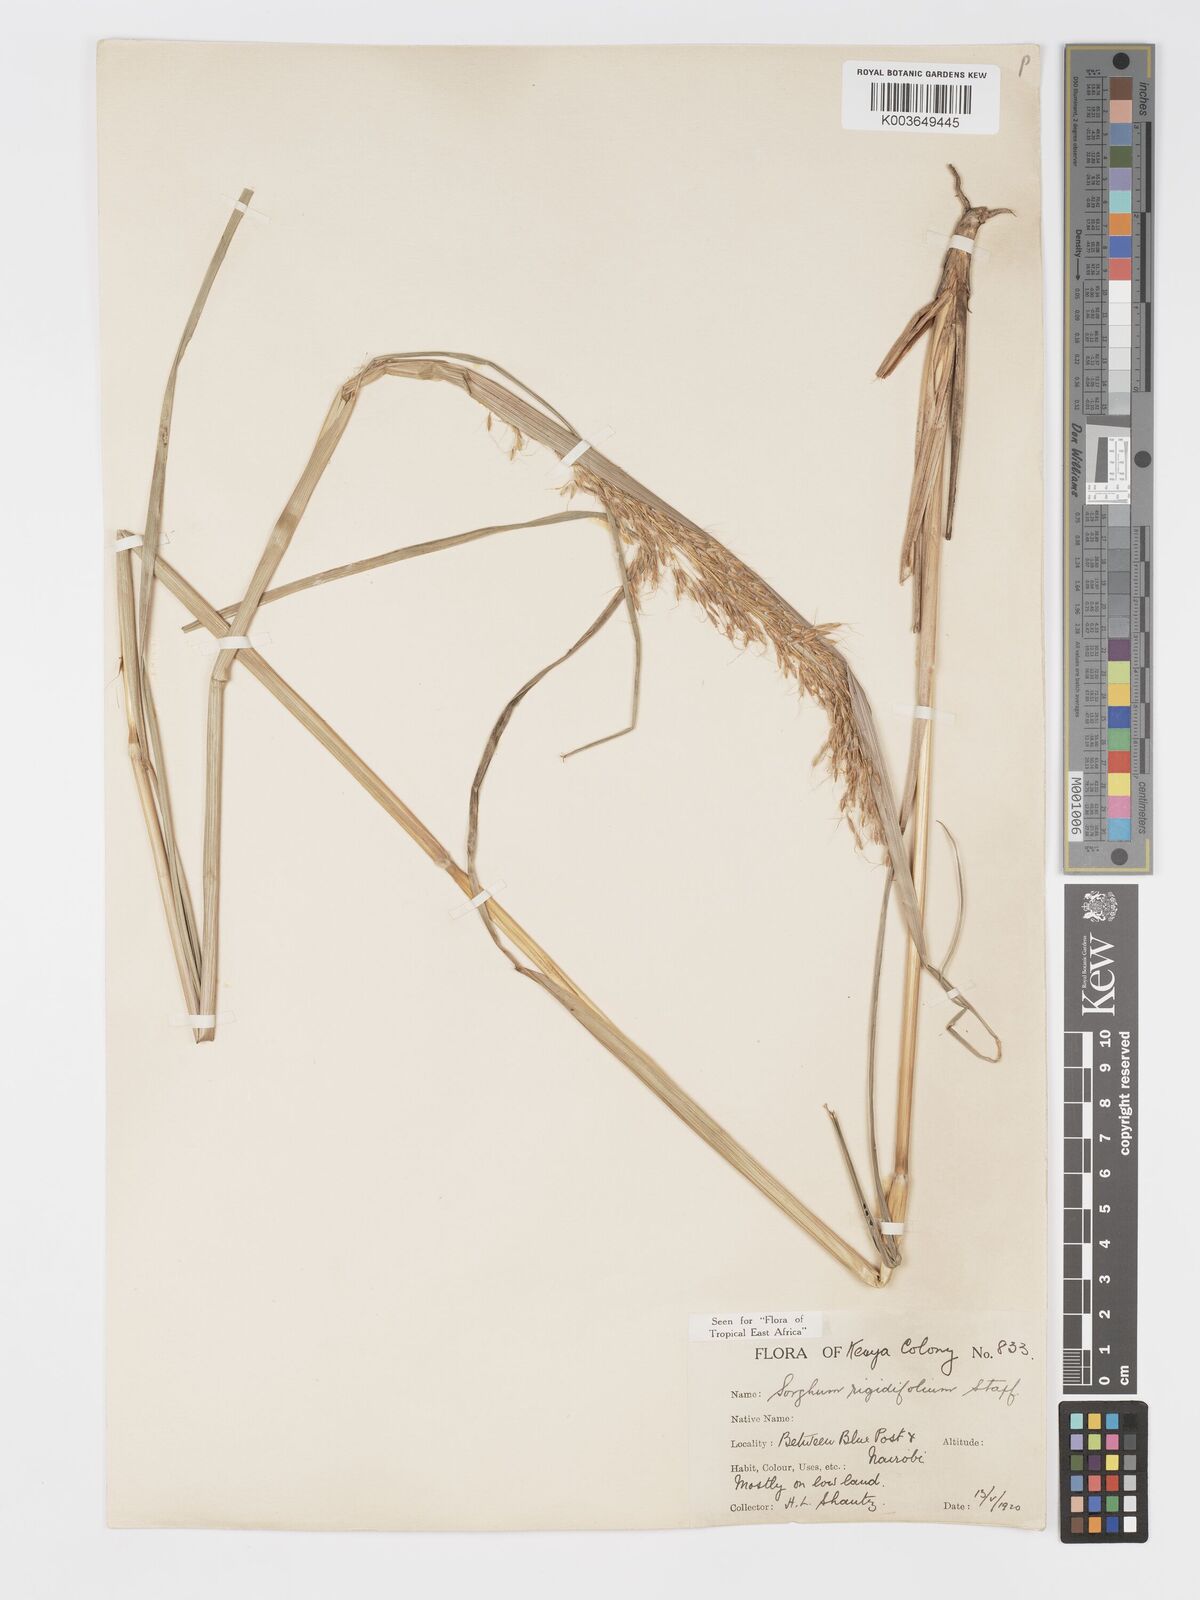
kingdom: Plantae
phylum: Tracheophyta
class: Liliopsida
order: Poales
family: Poaceae
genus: Sorghastrum
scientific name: Sorghastrum stipoides
